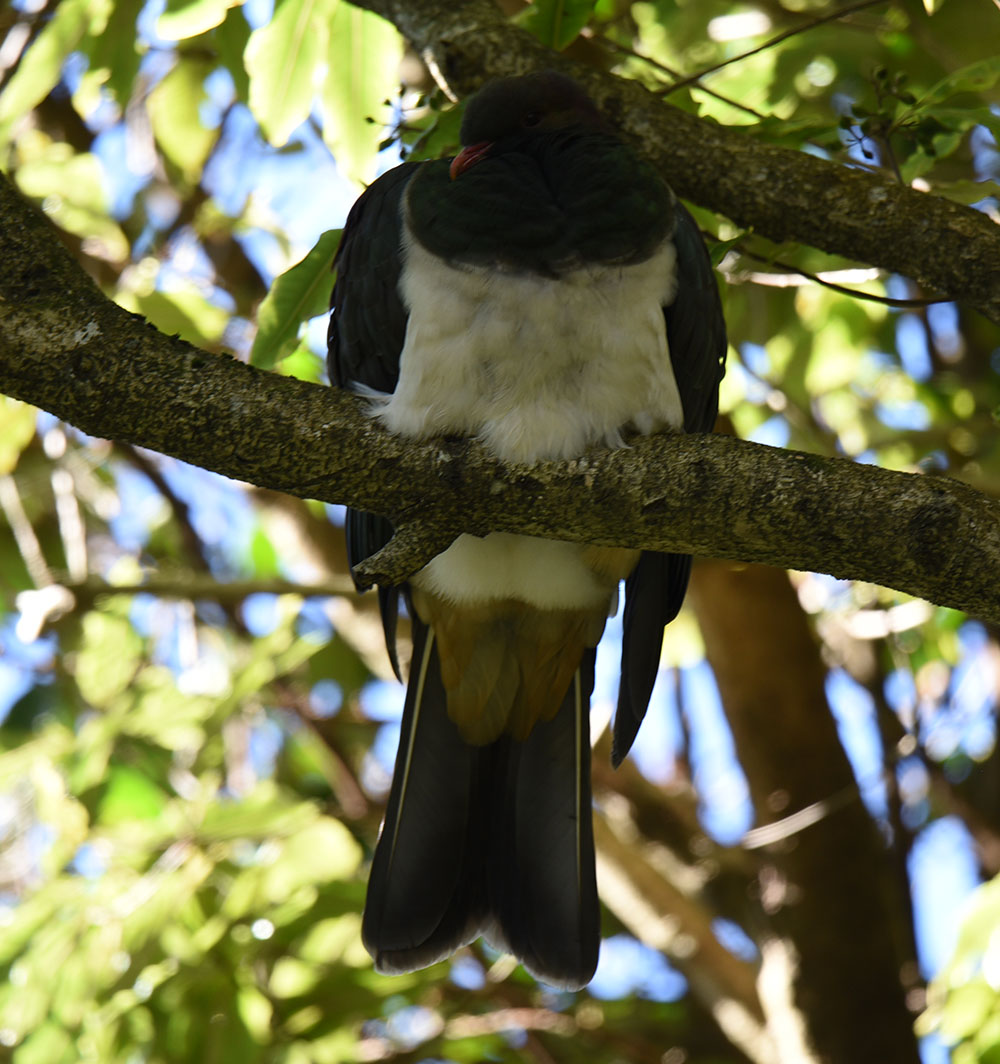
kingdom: Animalia
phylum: Chordata
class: Aves
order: Columbiformes
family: Columbidae
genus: Hemiphaga
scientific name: Hemiphaga novaeseelandiae
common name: New zealand pigeon
